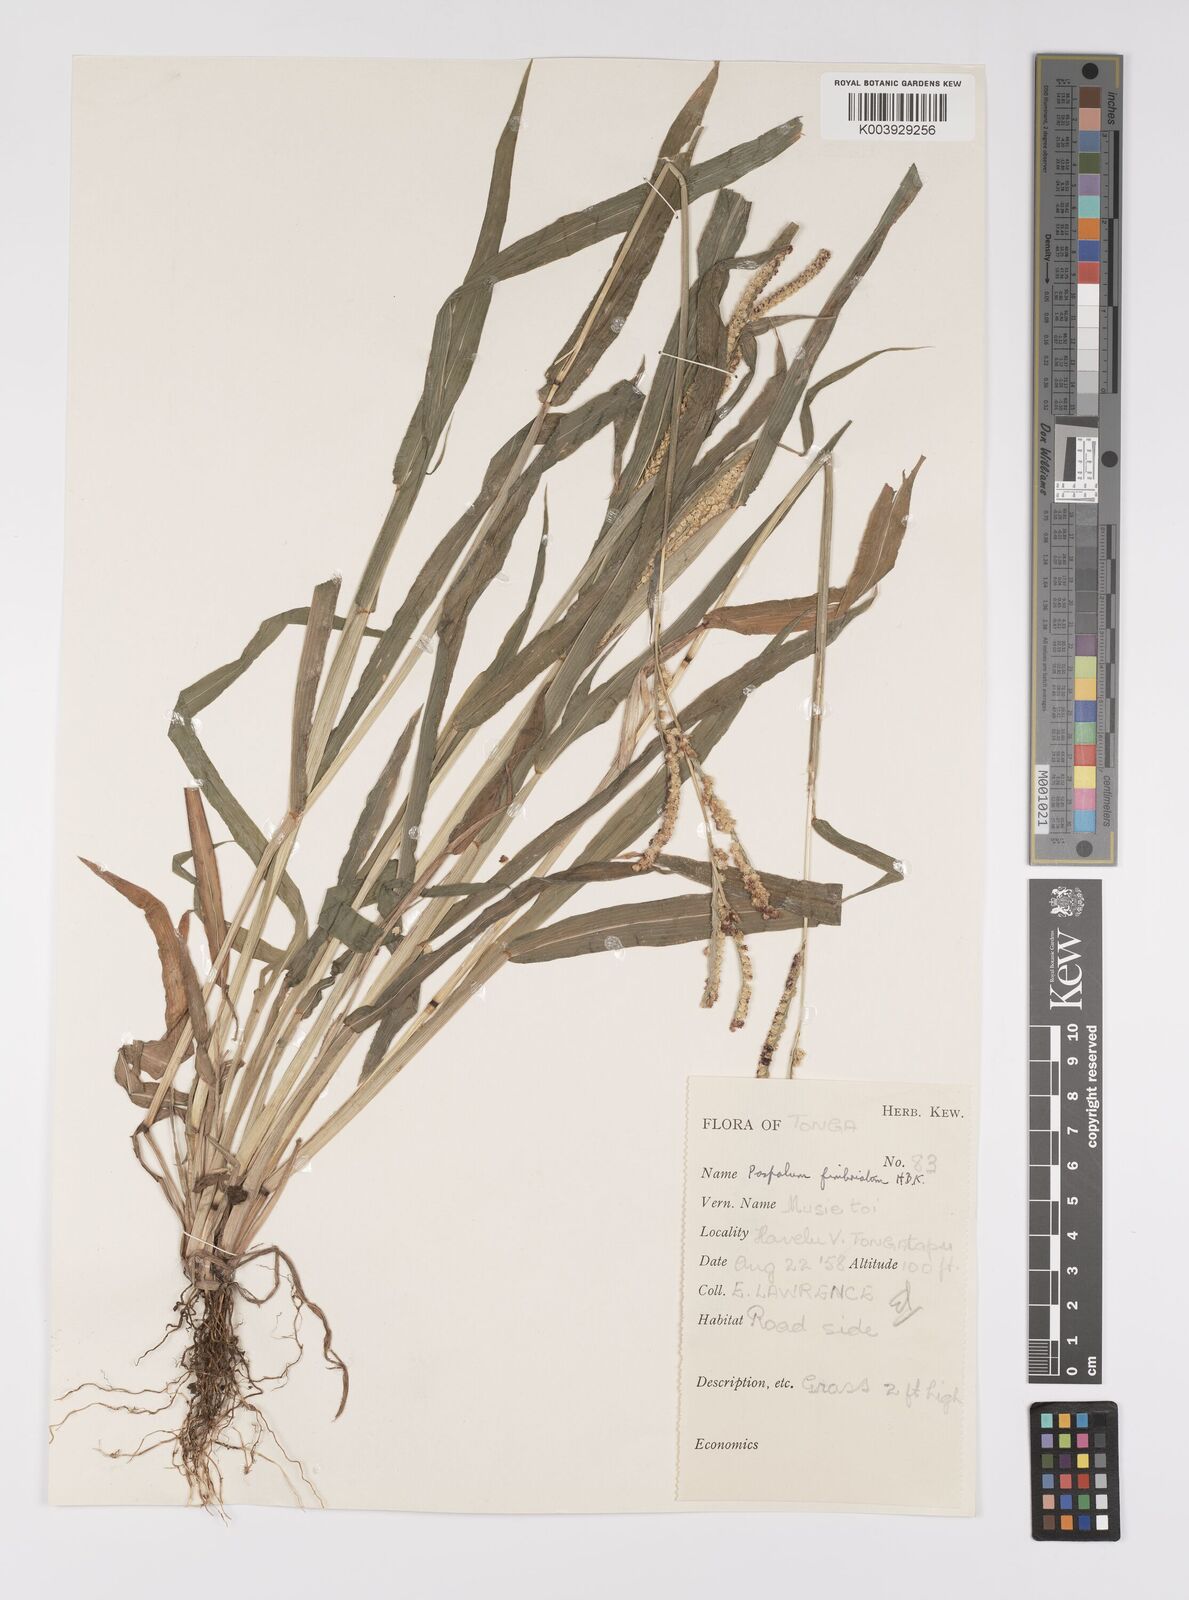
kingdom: Plantae
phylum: Tracheophyta
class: Liliopsida
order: Poales
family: Poaceae
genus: Paspalum
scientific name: Paspalum fimbriatum
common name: Panama crowngrass
